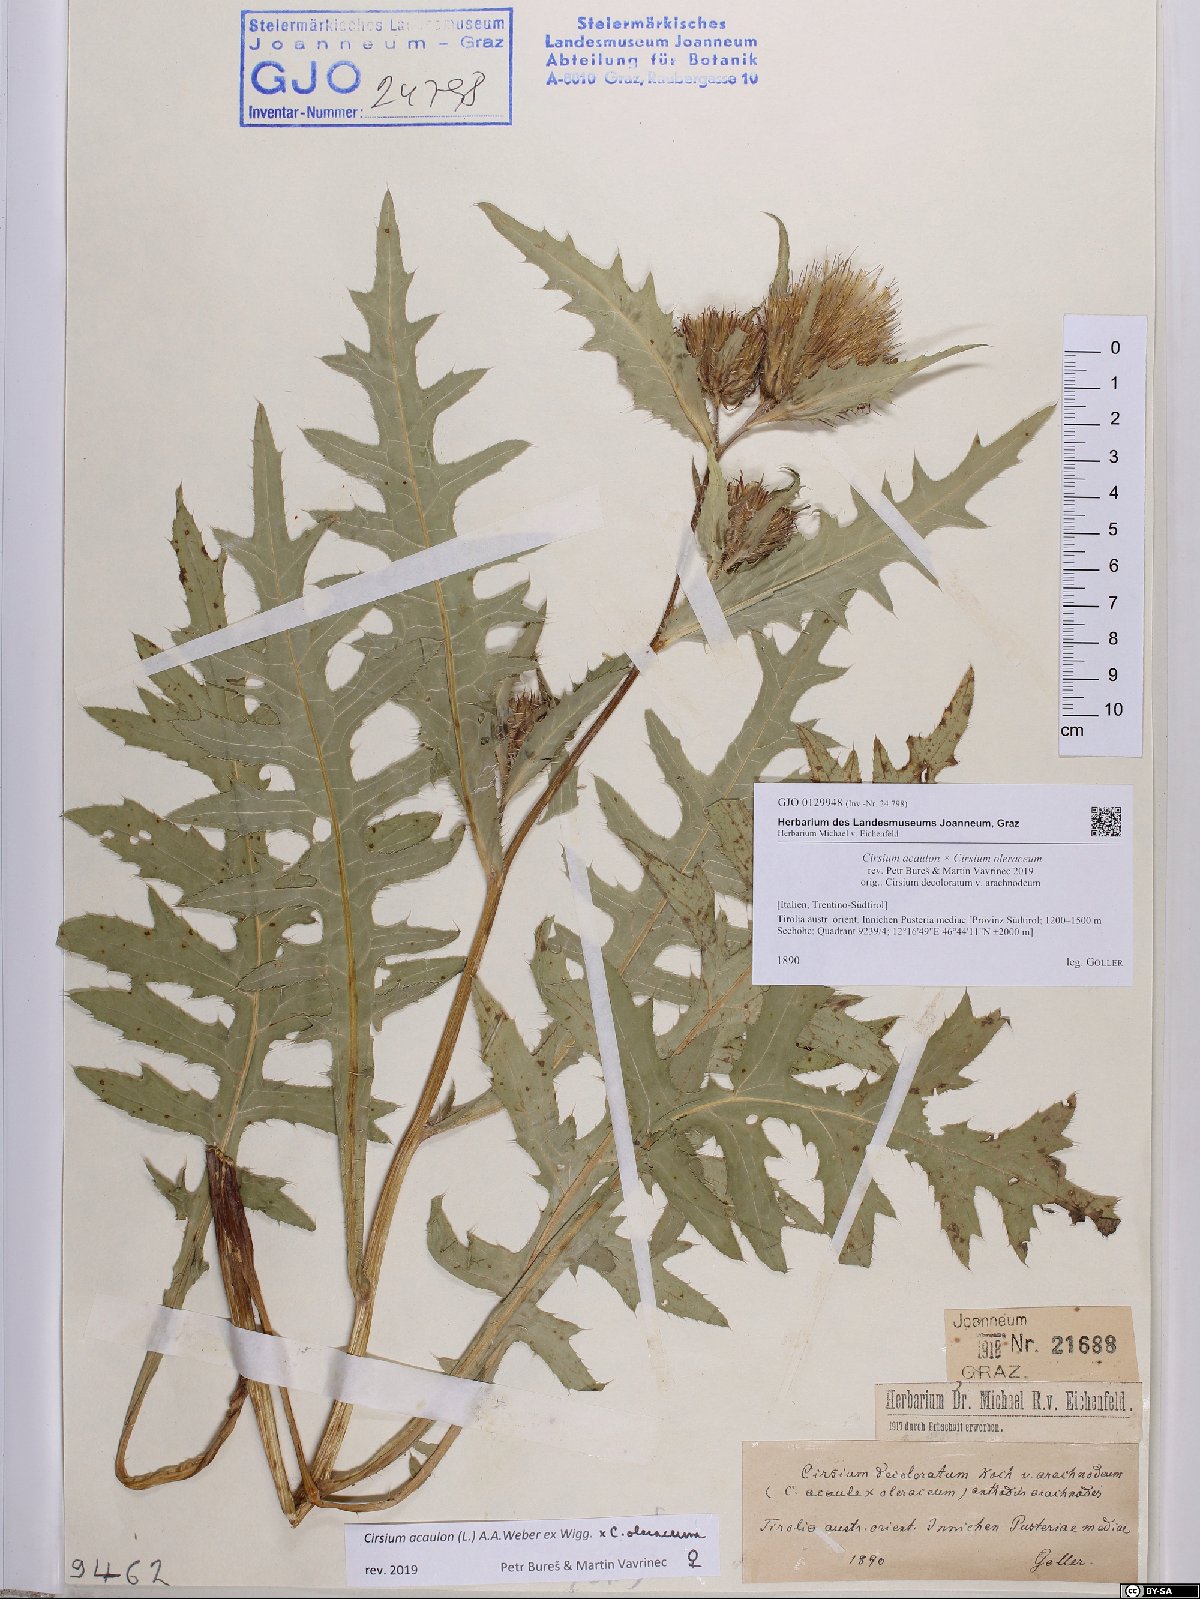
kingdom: Plantae
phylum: Tracheophyta
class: Magnoliopsida
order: Asterales
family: Asteraceae
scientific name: Asteraceae
